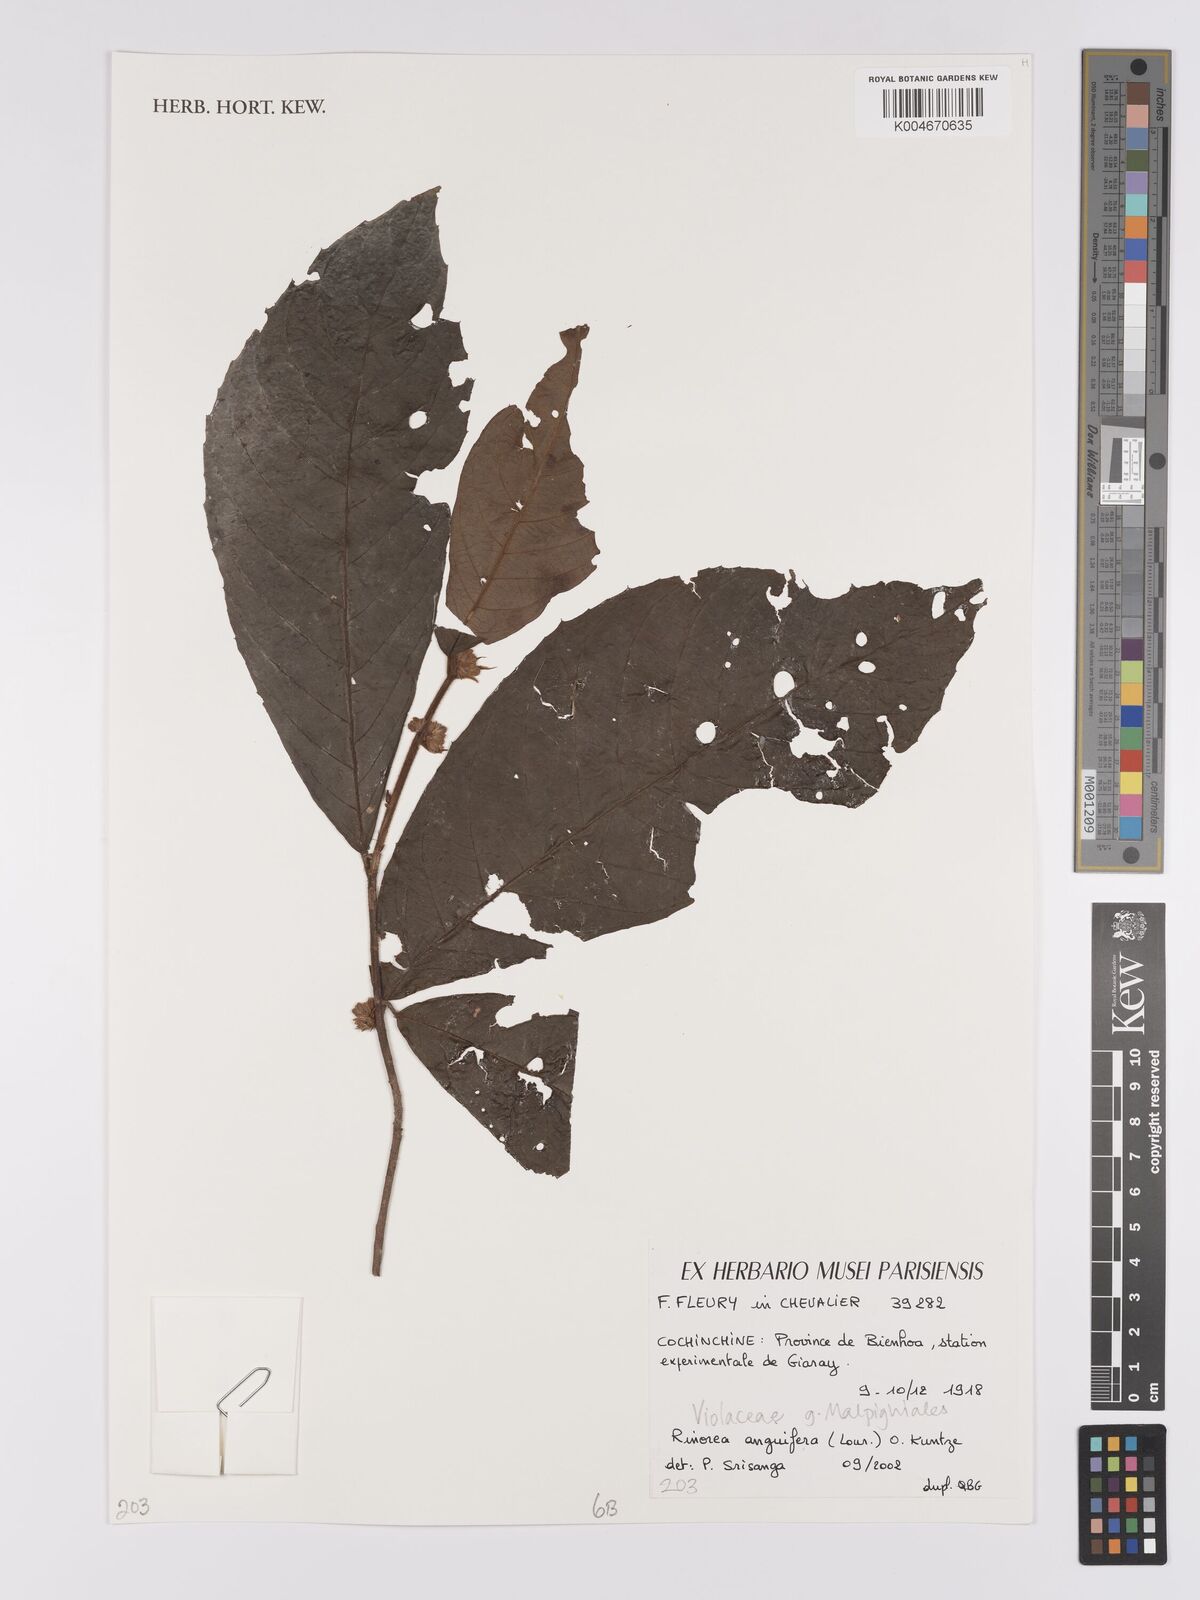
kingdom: Plantae
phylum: Tracheophyta
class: Magnoliopsida
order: Malpighiales
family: Violaceae
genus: Rinorea
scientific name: Rinorea anguifera
